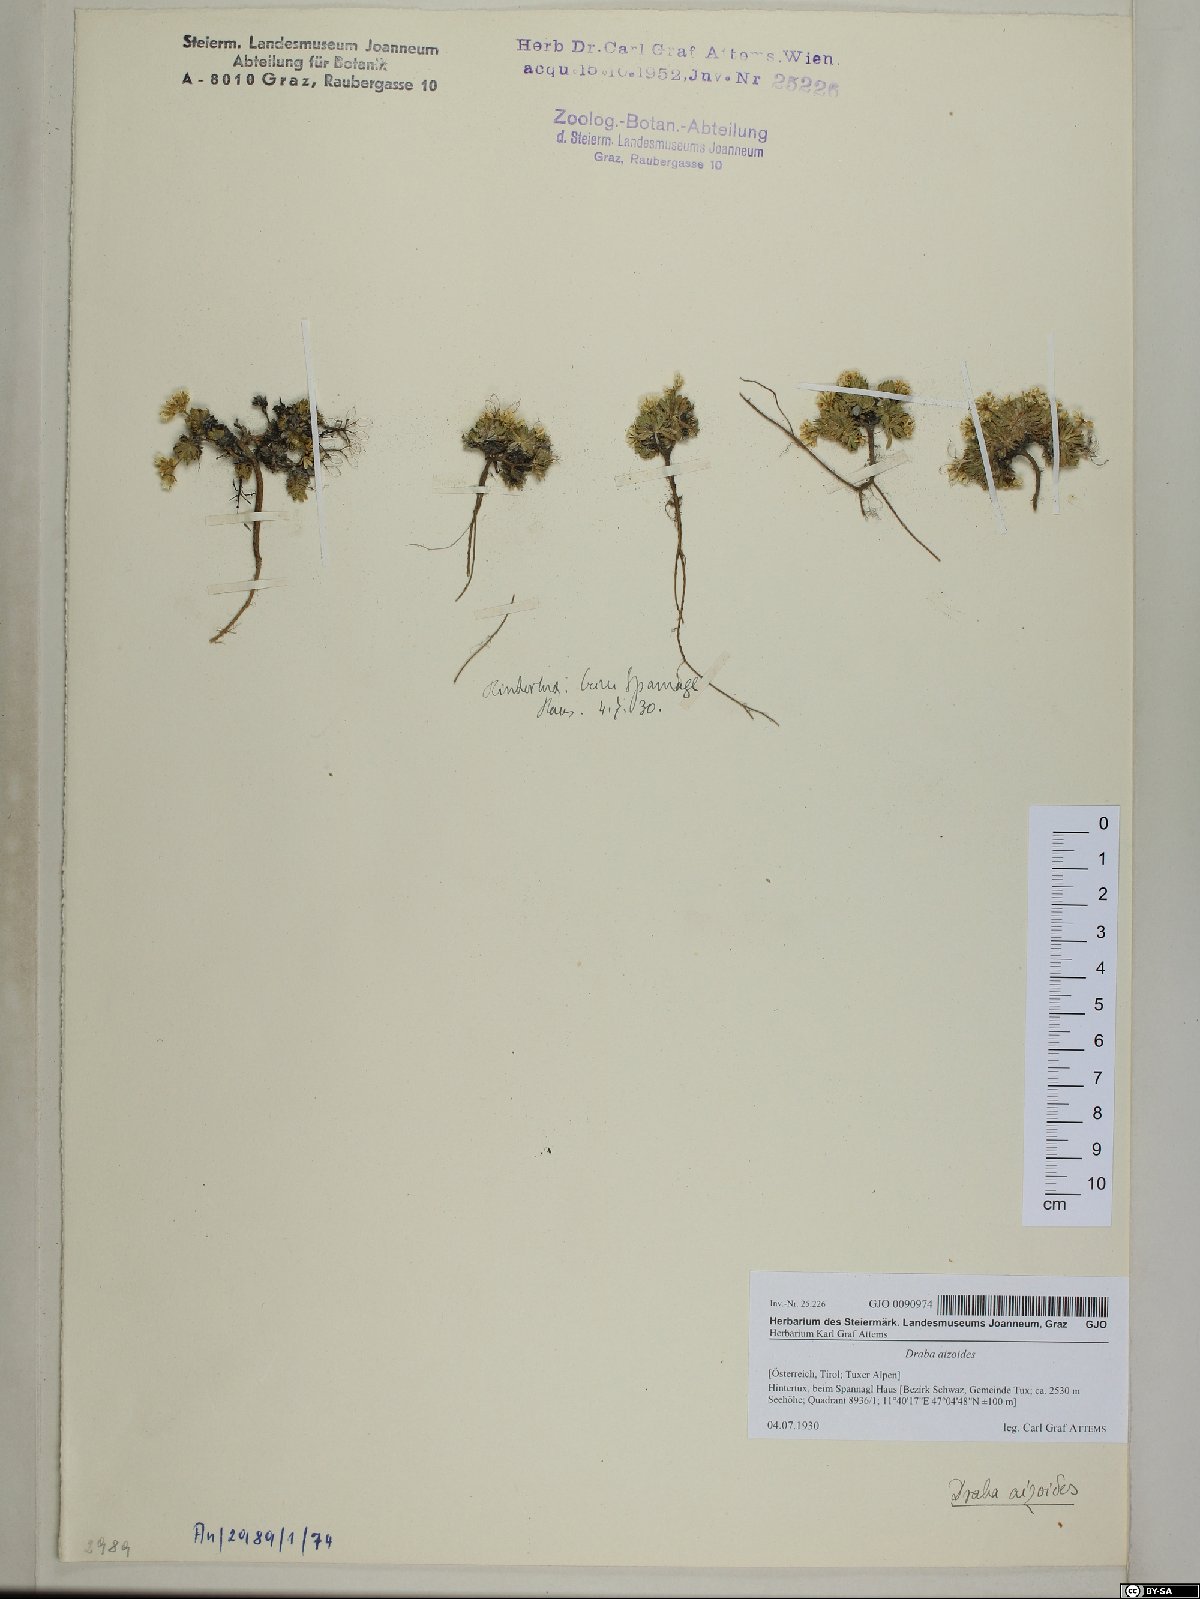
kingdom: Plantae
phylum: Tracheophyta
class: Magnoliopsida
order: Brassicales
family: Brassicaceae
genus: Draba
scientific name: Draba aizoides
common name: Yellow whitlowgrass
